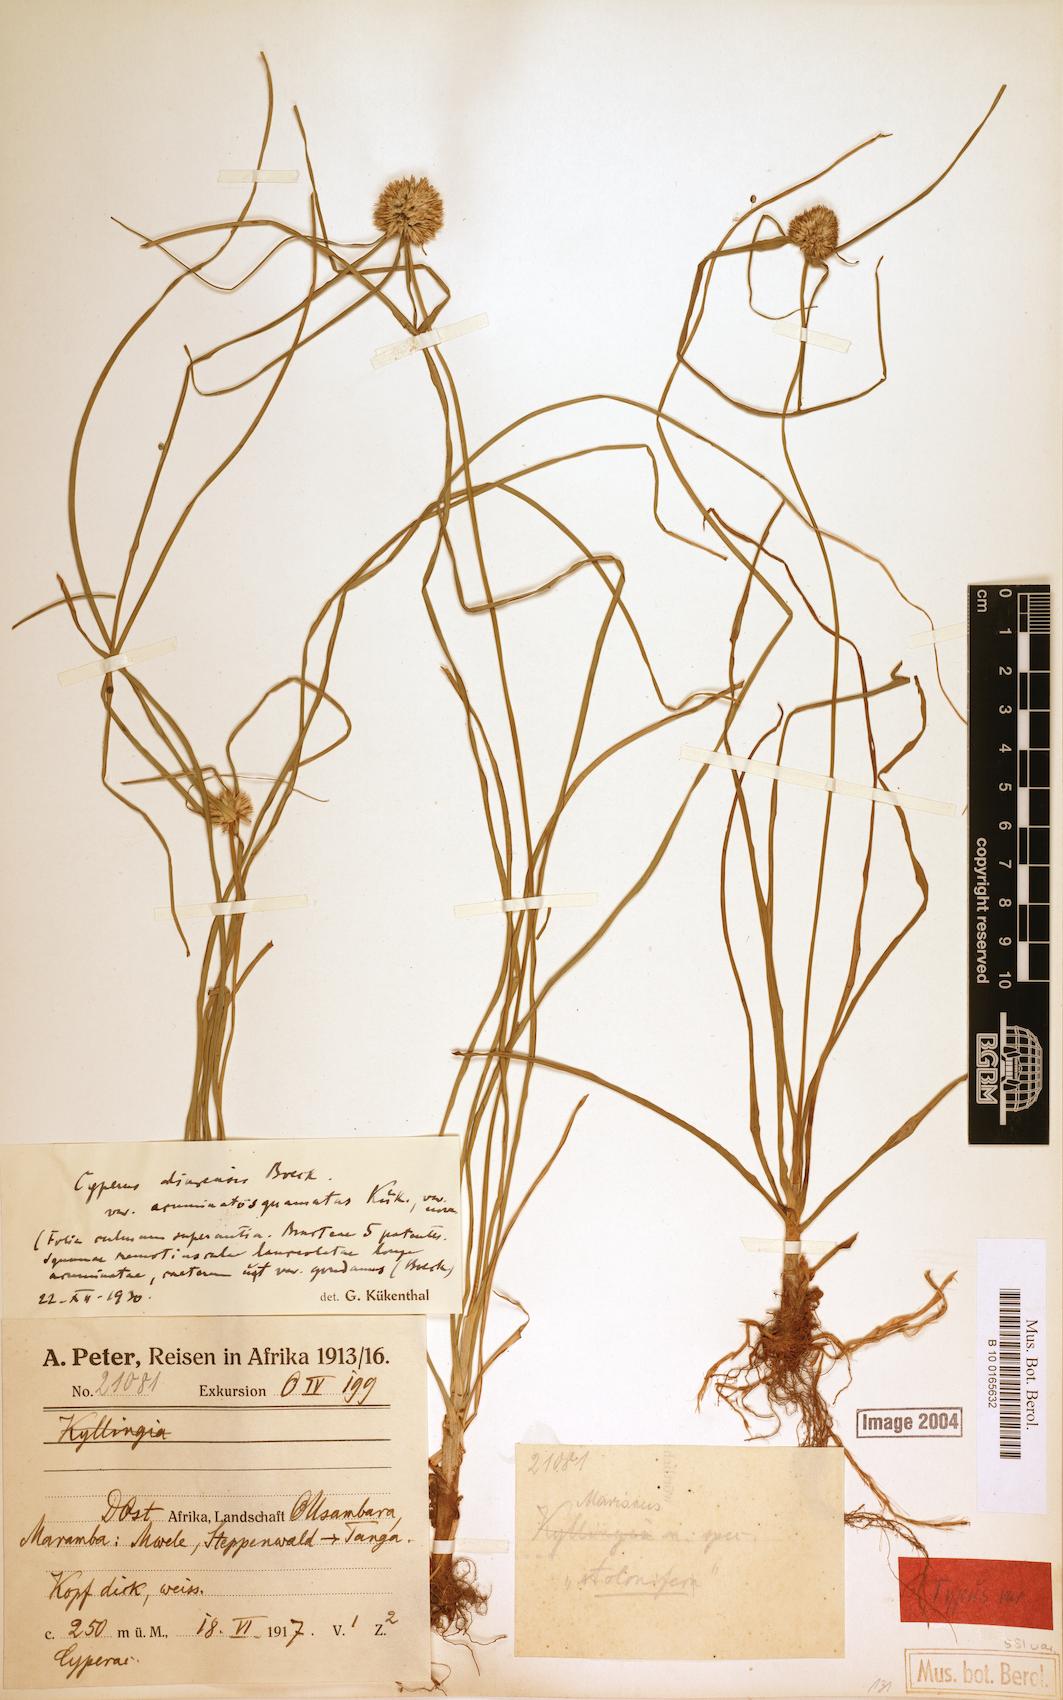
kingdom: Plantae
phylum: Tracheophyta
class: Liliopsida
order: Poales
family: Cyperaceae
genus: Cyperus
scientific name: Cyperus diurensis
